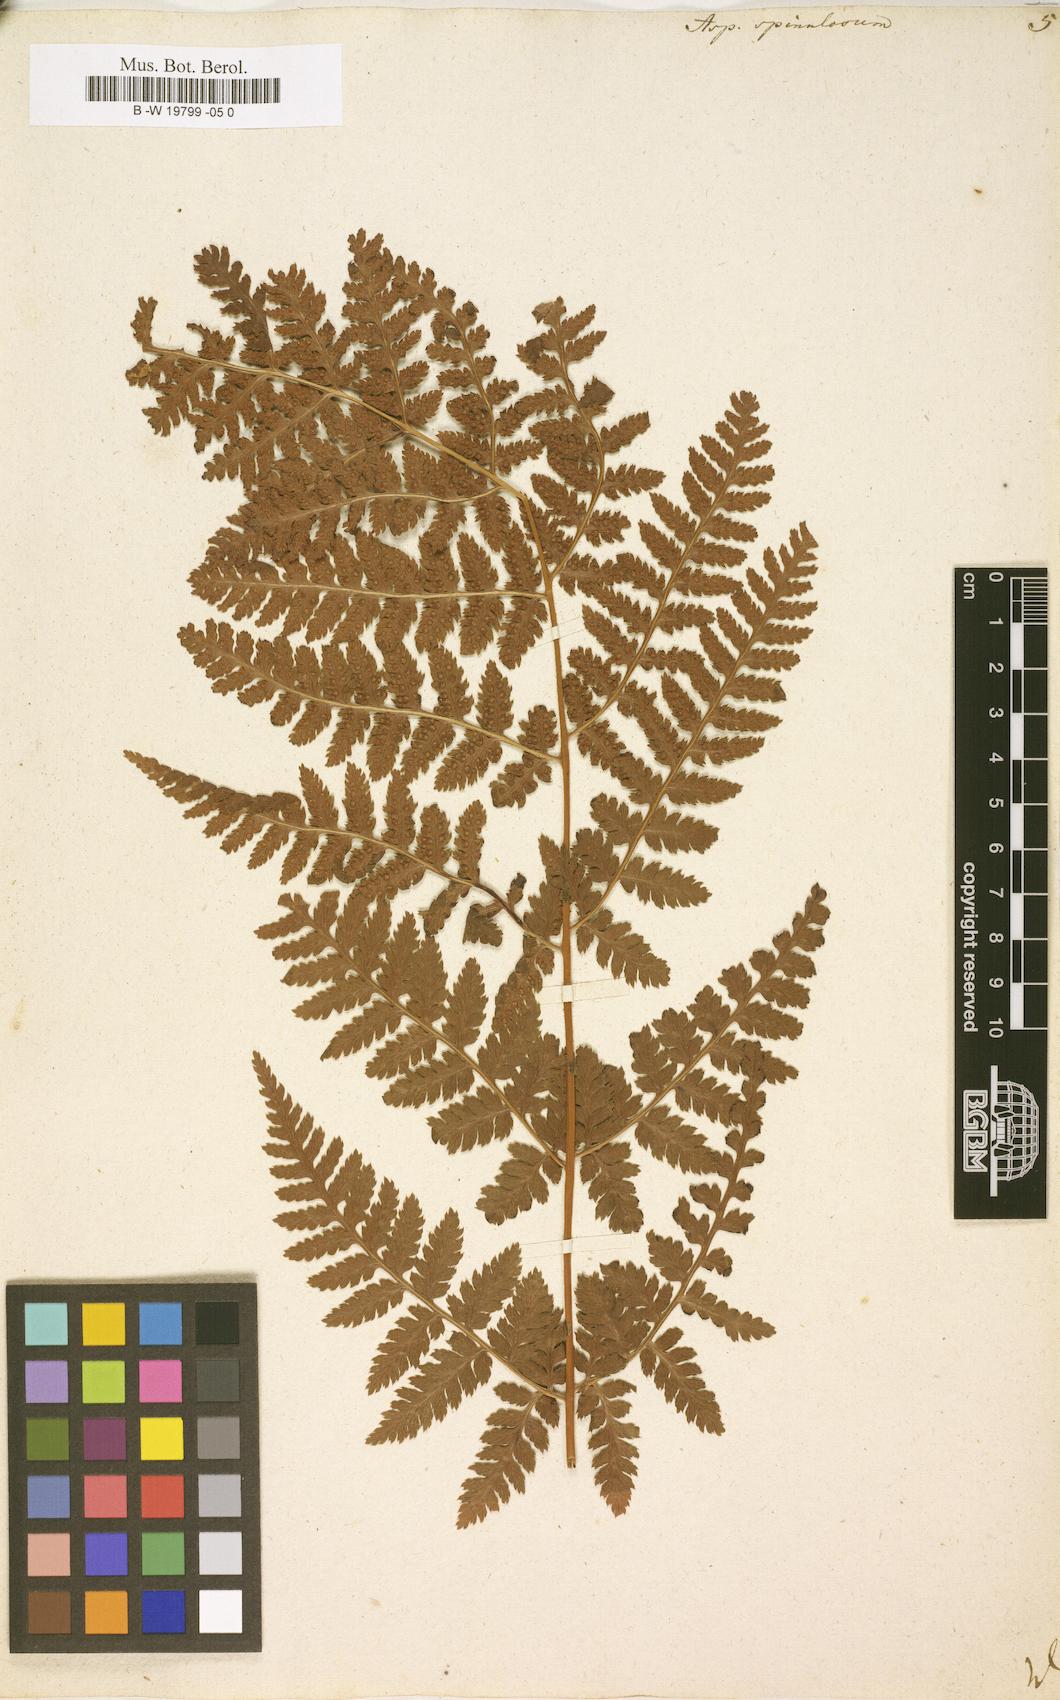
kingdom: Plantae
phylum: Tracheophyta
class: Polypodiopsida
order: Polypodiales
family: Dryopteridaceae
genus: Dryopteris
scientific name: Dryopteris
